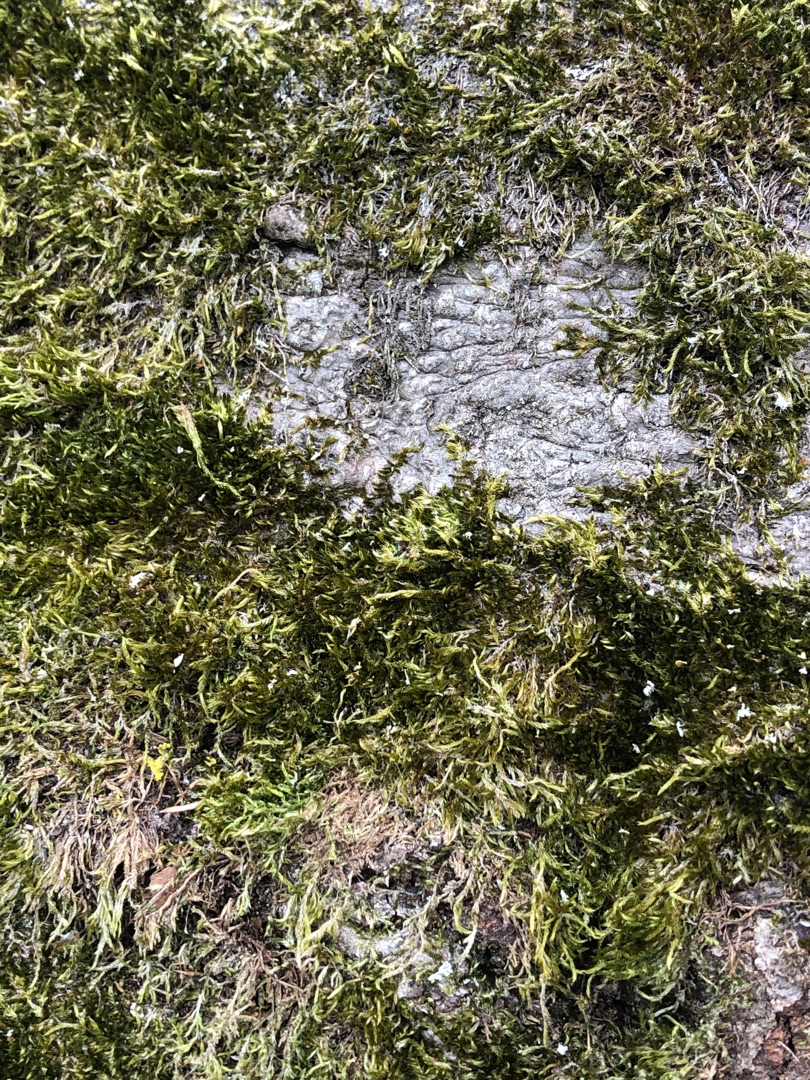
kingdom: Plantae
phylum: Bryophyta
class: Bryopsida
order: Hypnales
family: Hypnaceae
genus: Hypnum
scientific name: Hypnum cupressiforme
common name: Almindelig cypresmos
